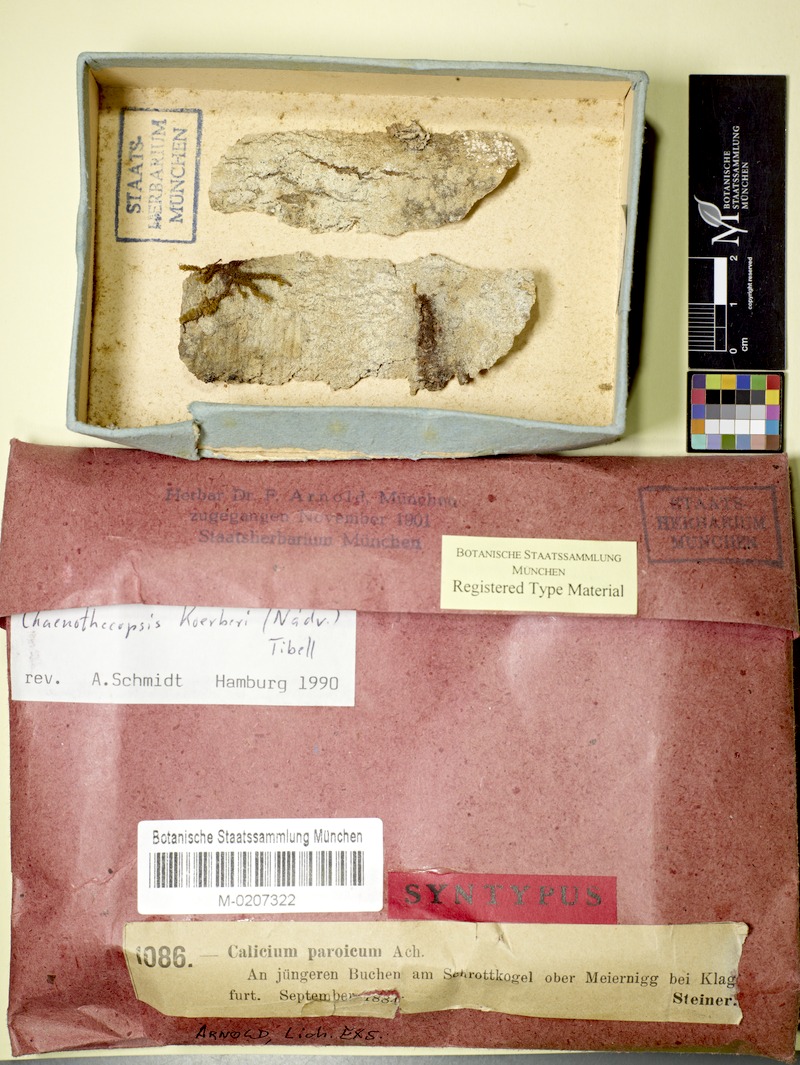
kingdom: Fungi
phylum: Ascomycota
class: Eurotiomycetes
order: Mycocaliciales
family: Mycocaliciaceae
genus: Chaenothecopsis
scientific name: Chaenothecopsis ochroleuca
